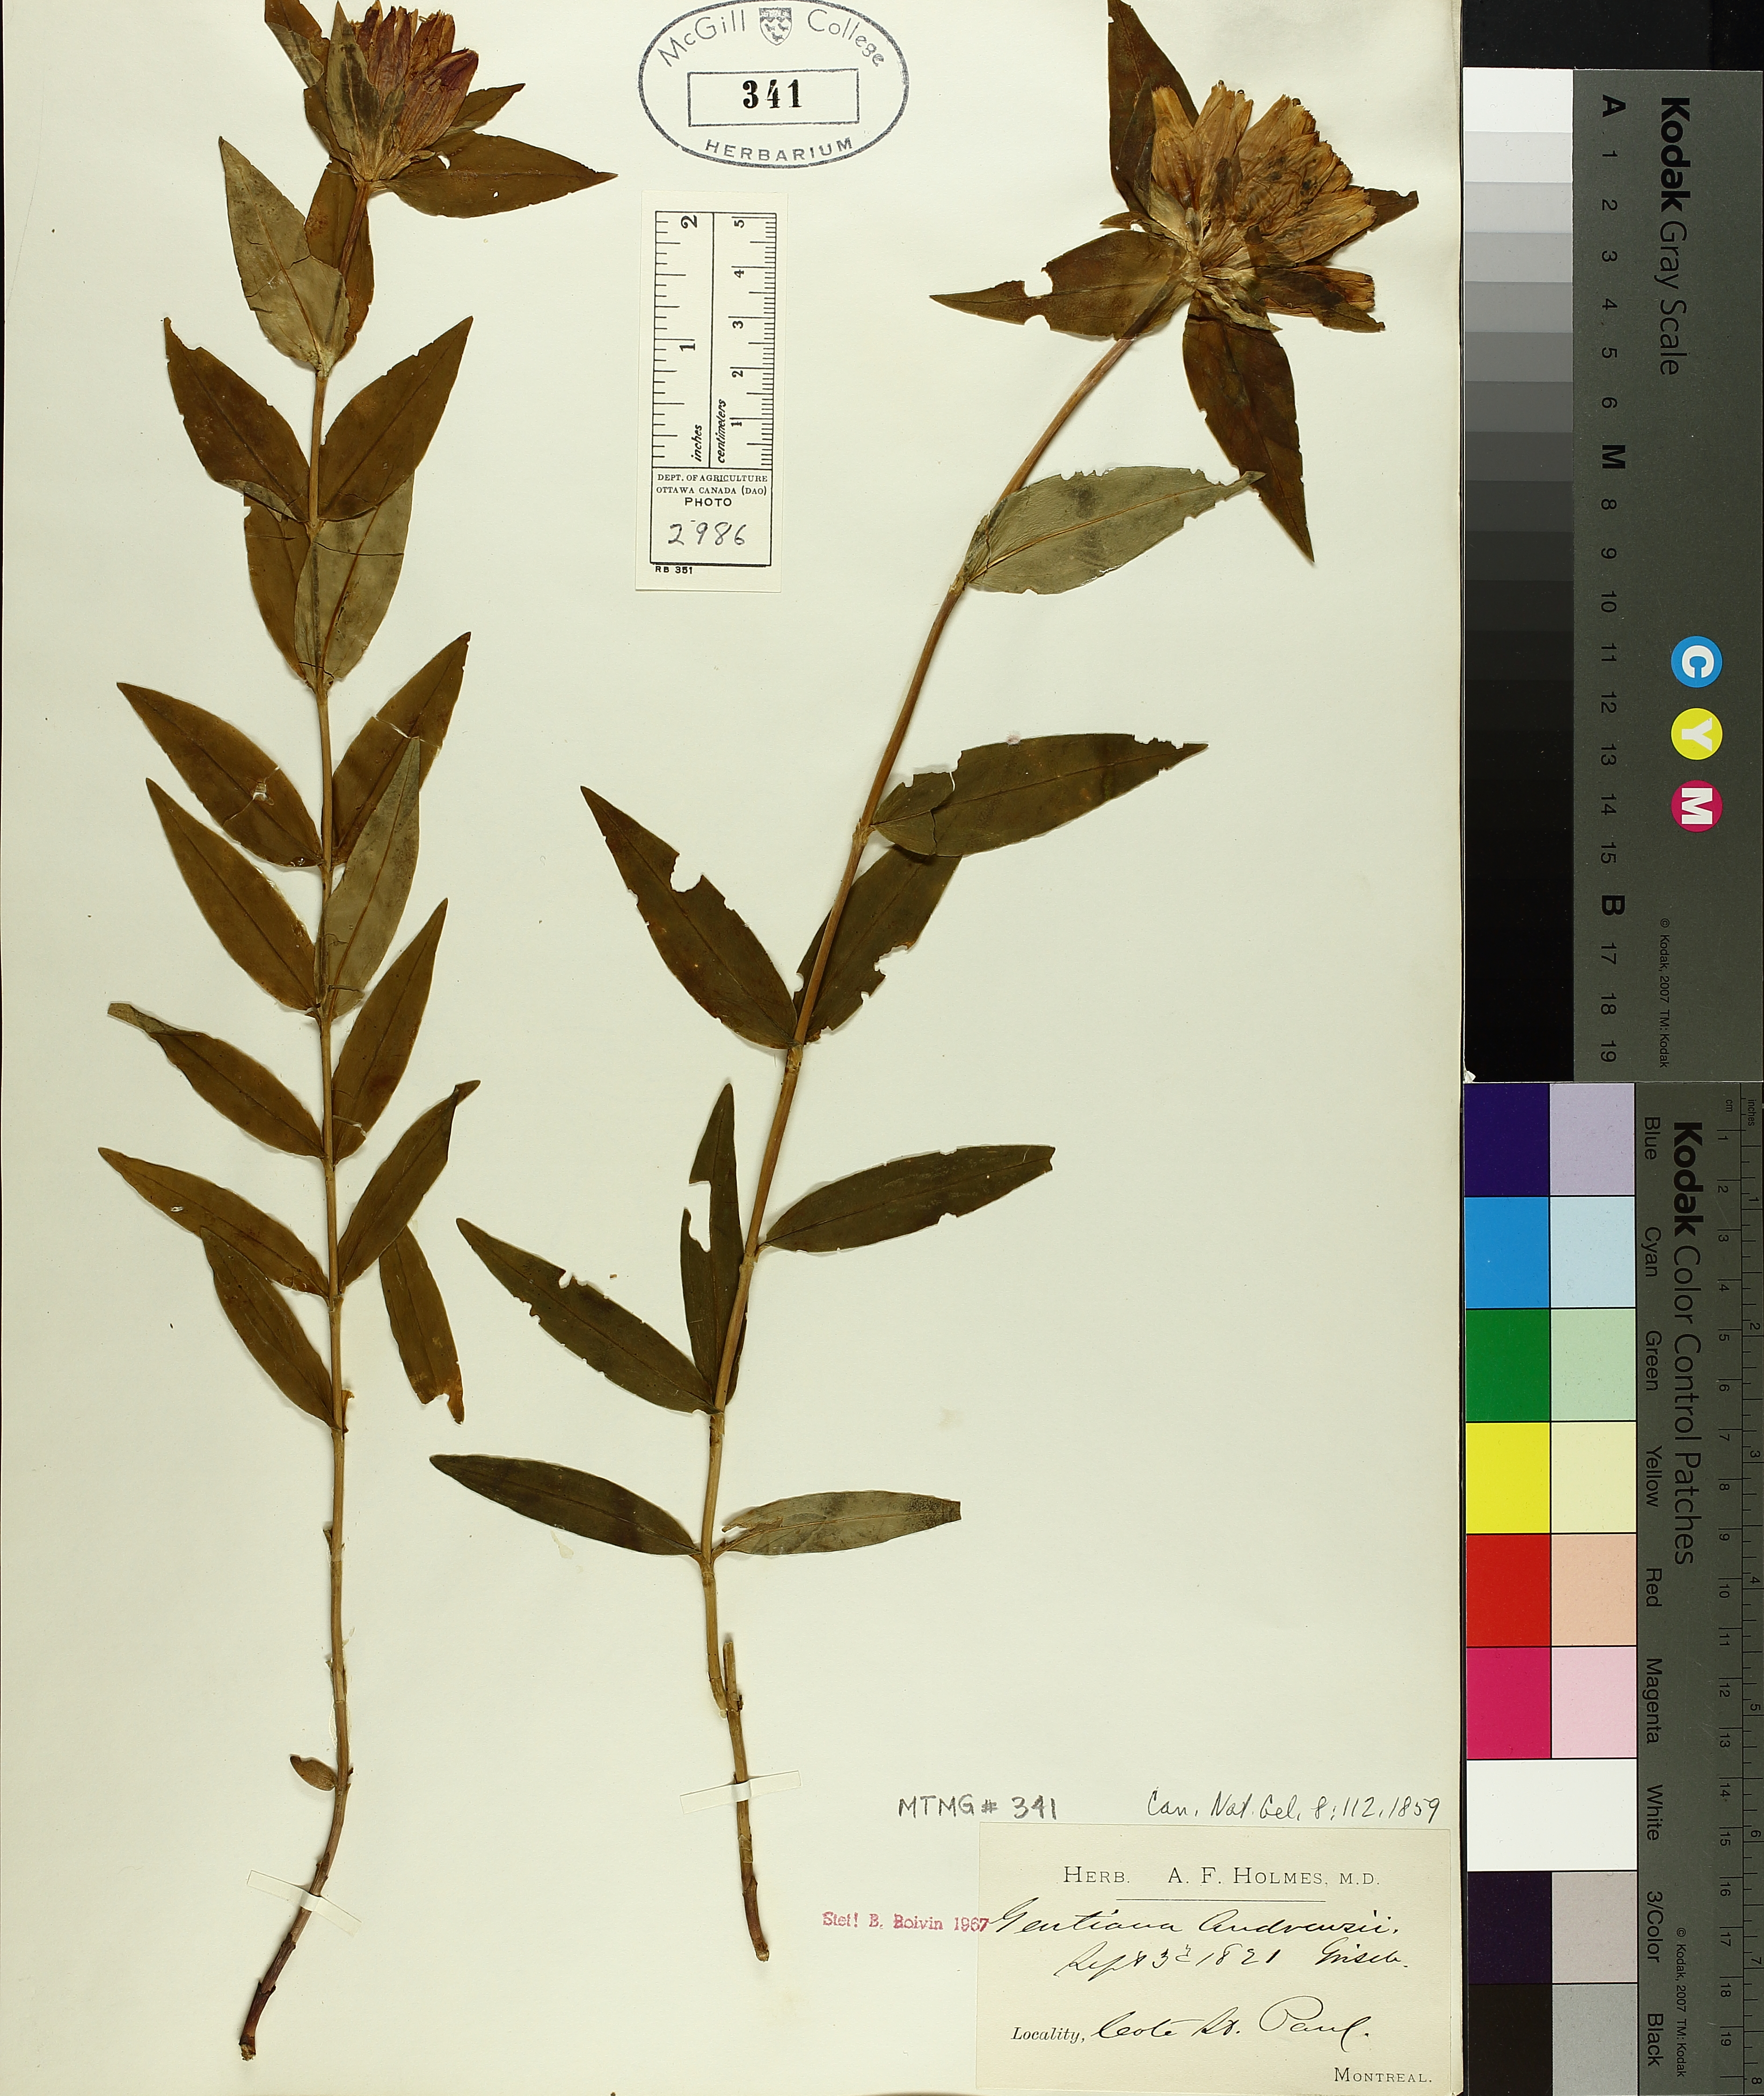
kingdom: Plantae
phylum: Tracheophyta
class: Magnoliopsida
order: Gentianales
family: Gentianaceae
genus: Gentiana
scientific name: Gentiana andrewsii
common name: Bottle gentian
